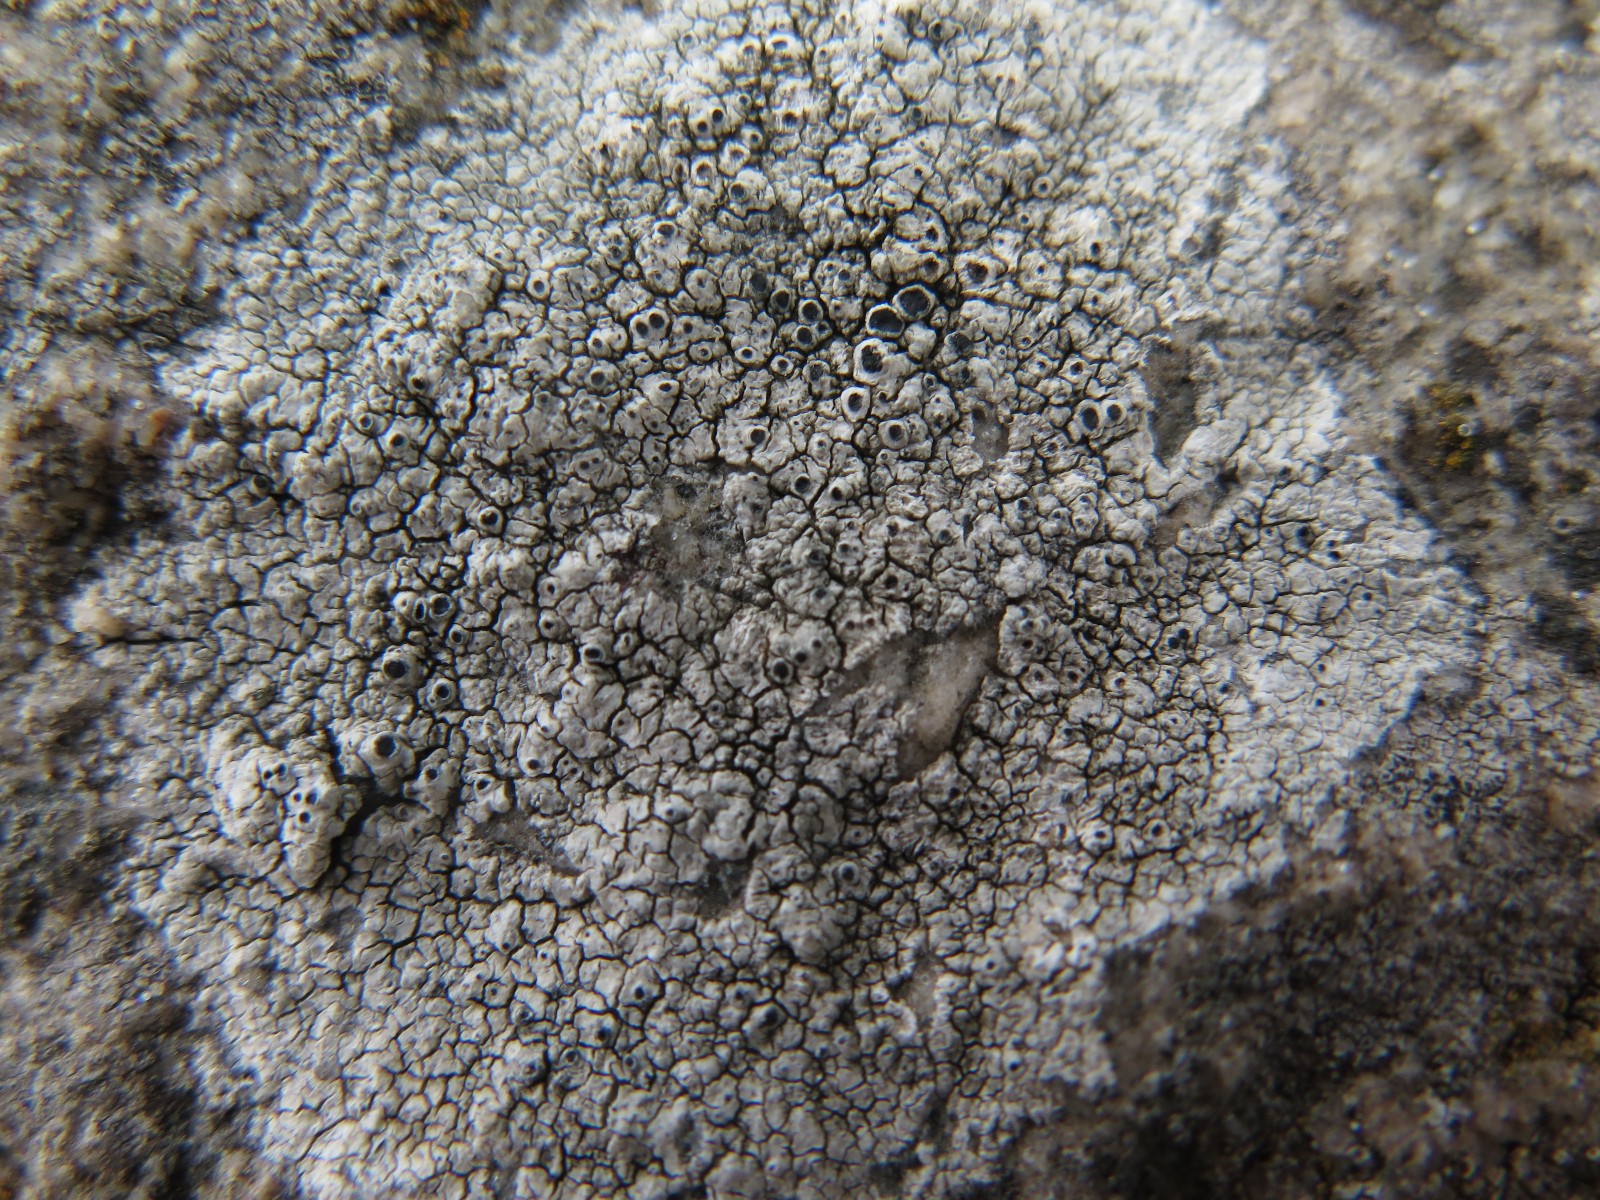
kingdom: Fungi
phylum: Ascomycota
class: Lecanoromycetes
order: Lecanorales
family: Tephromelataceae
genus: Tephromela
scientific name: Tephromela atra
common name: sortfrugtet kantskivelav
